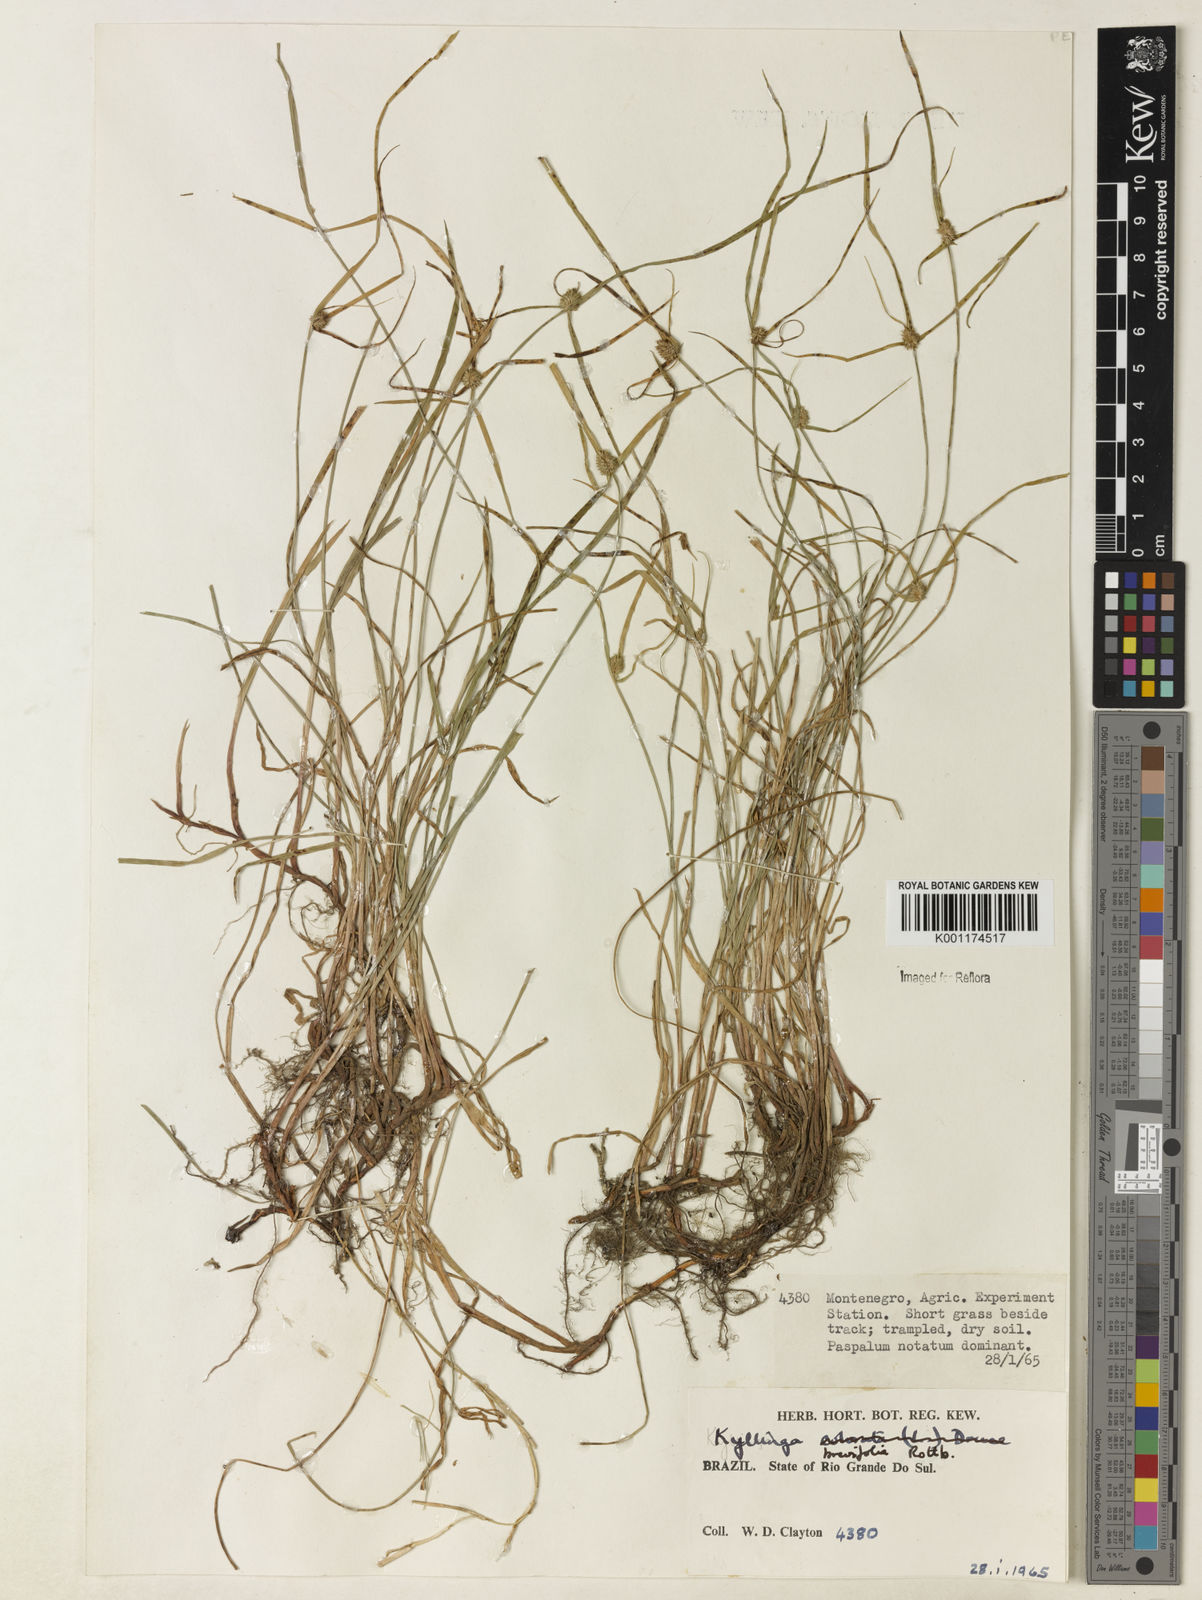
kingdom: Plantae
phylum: Tracheophyta
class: Liliopsida
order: Poales
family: Cyperaceae
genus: Cyperus
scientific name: Cyperus brevifolius
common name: Globe kyllinga
